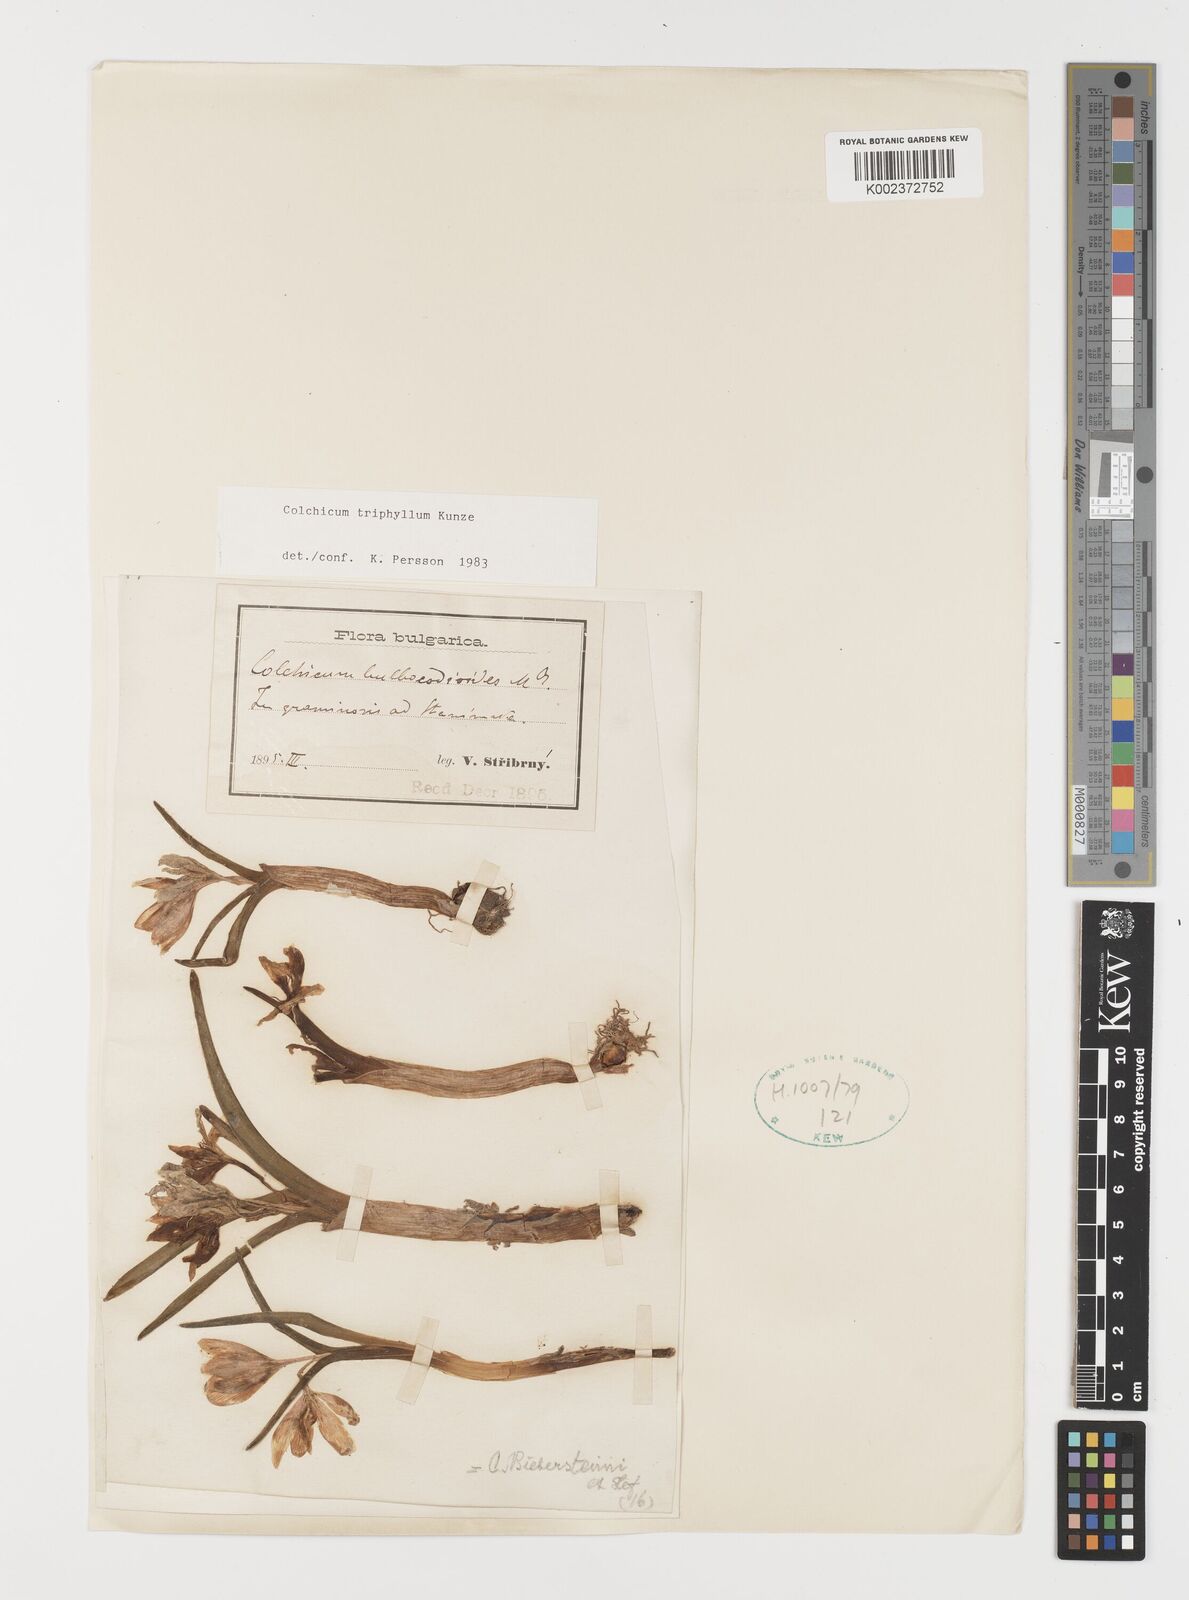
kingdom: Plantae
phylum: Tracheophyta
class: Liliopsida
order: Liliales
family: Colchicaceae
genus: Colchicum
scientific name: Colchicum triphyllum
